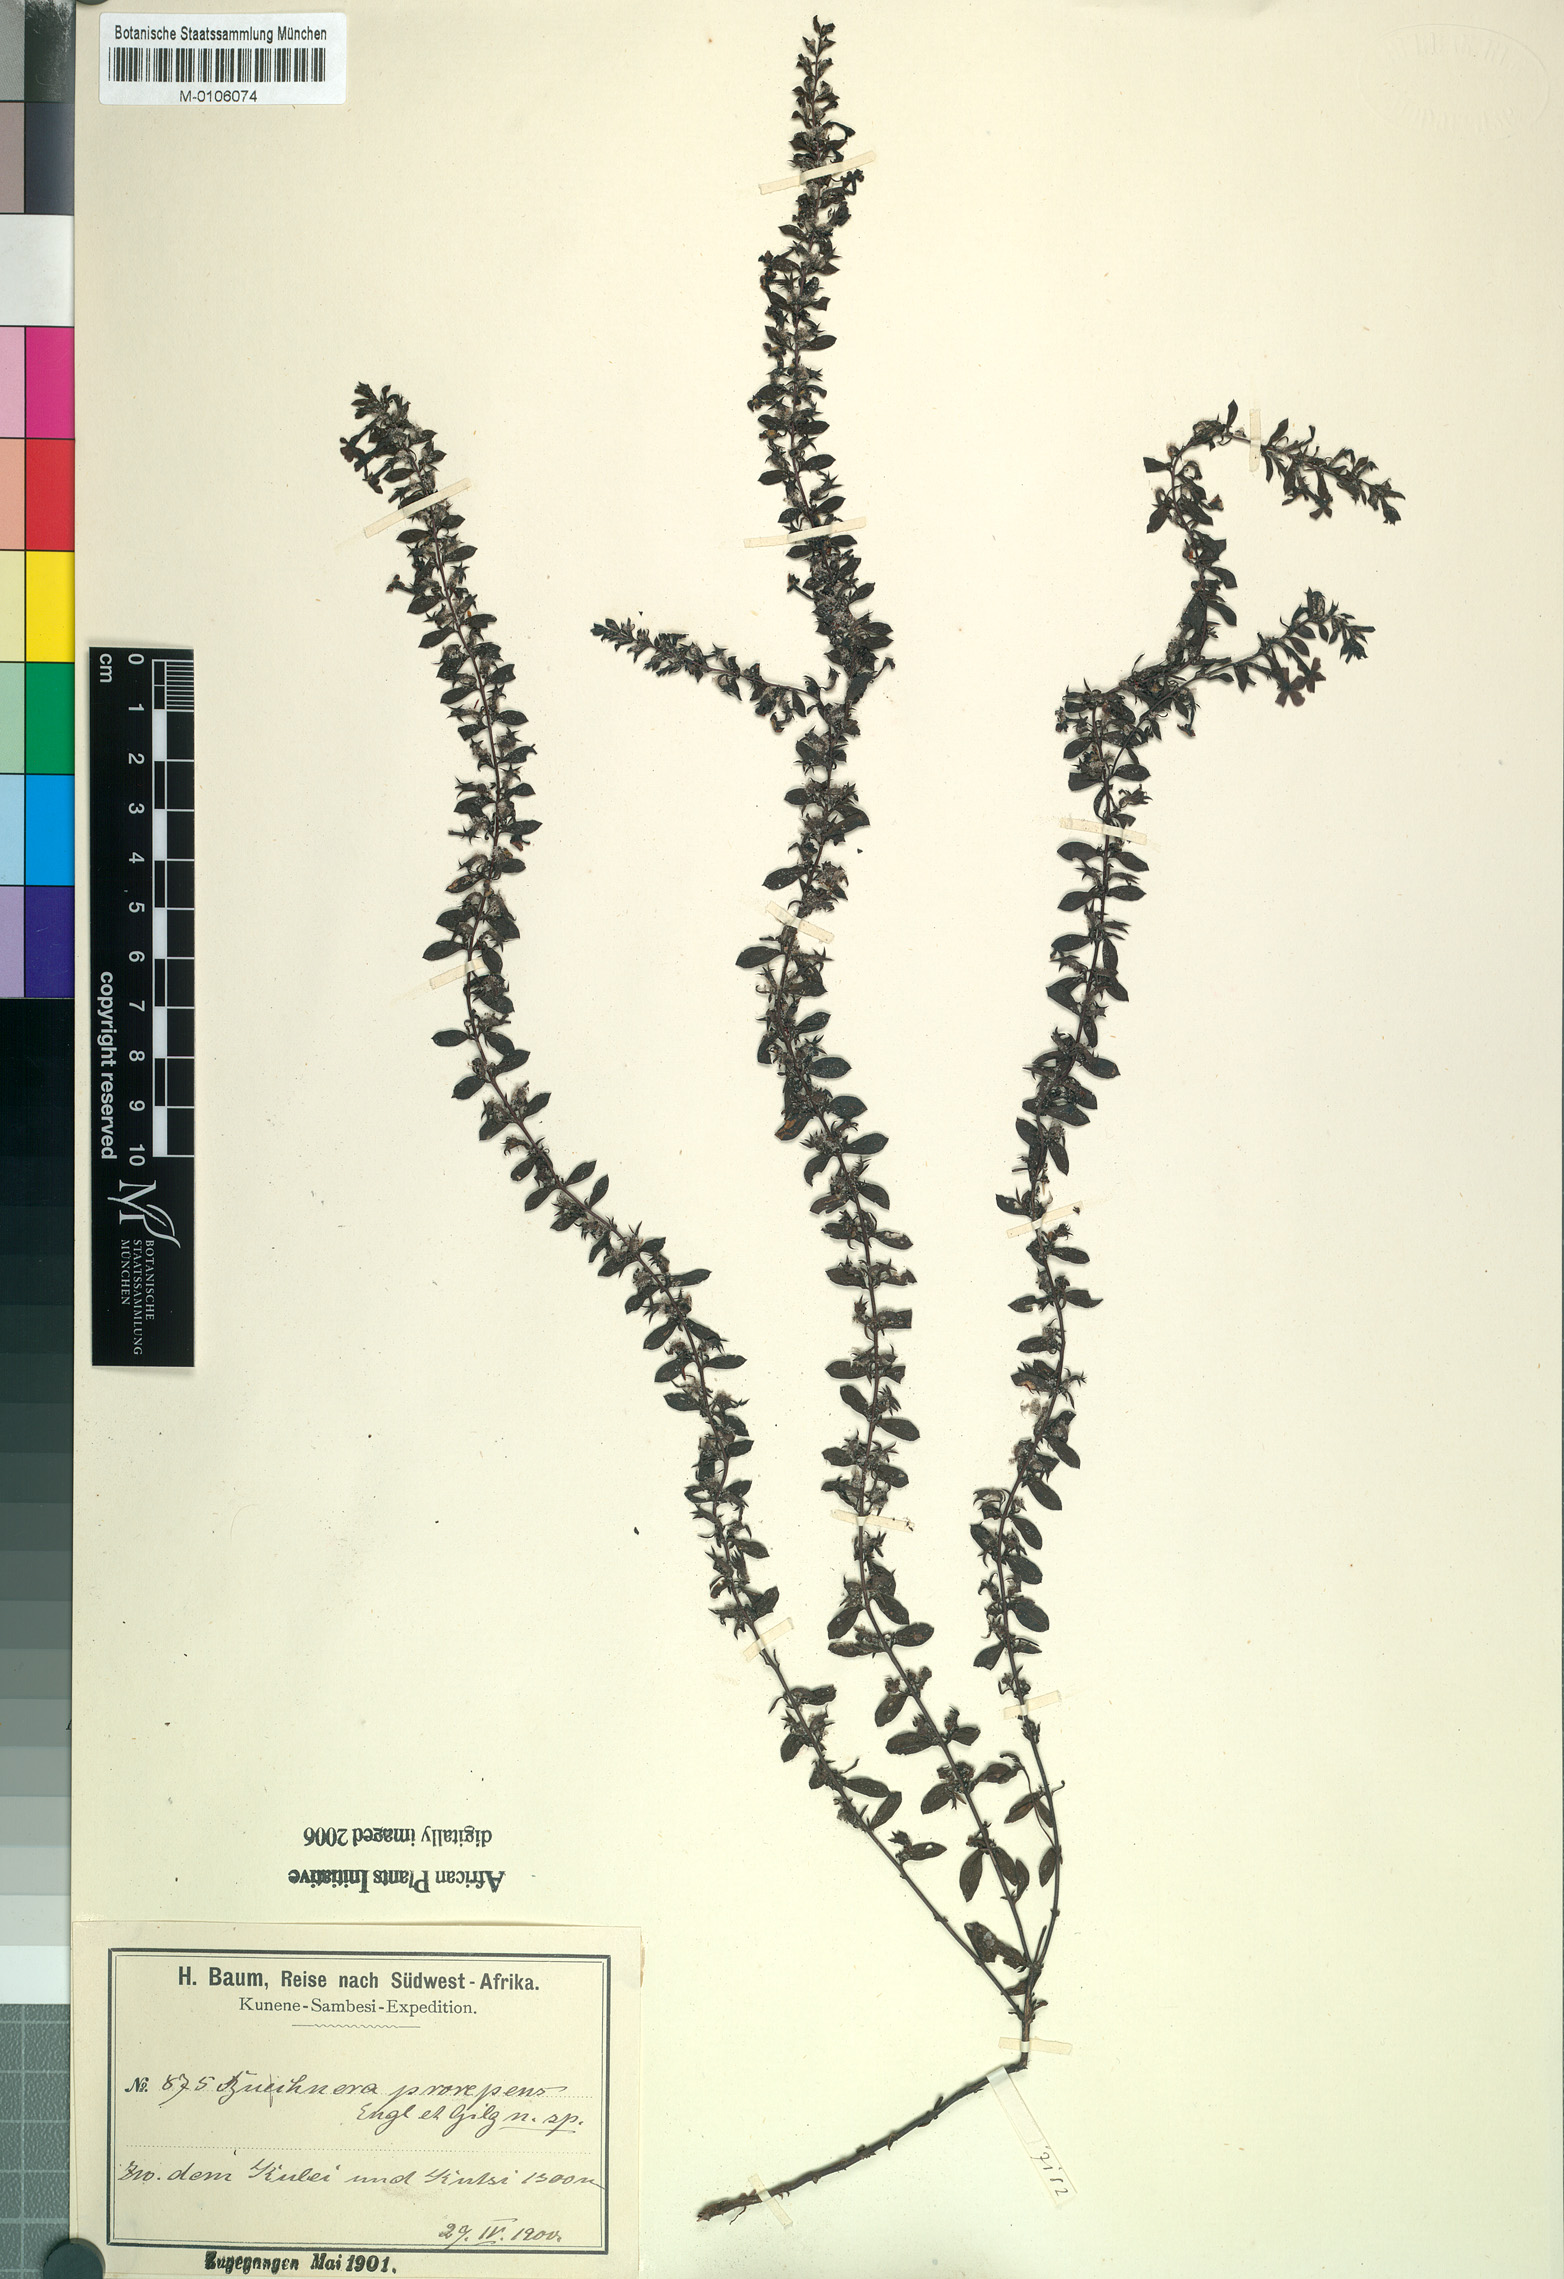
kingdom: Plantae
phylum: Tracheophyta
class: Magnoliopsida
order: Lamiales
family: Orobanchaceae
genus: Buchnera
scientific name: Buchnera prorepens
